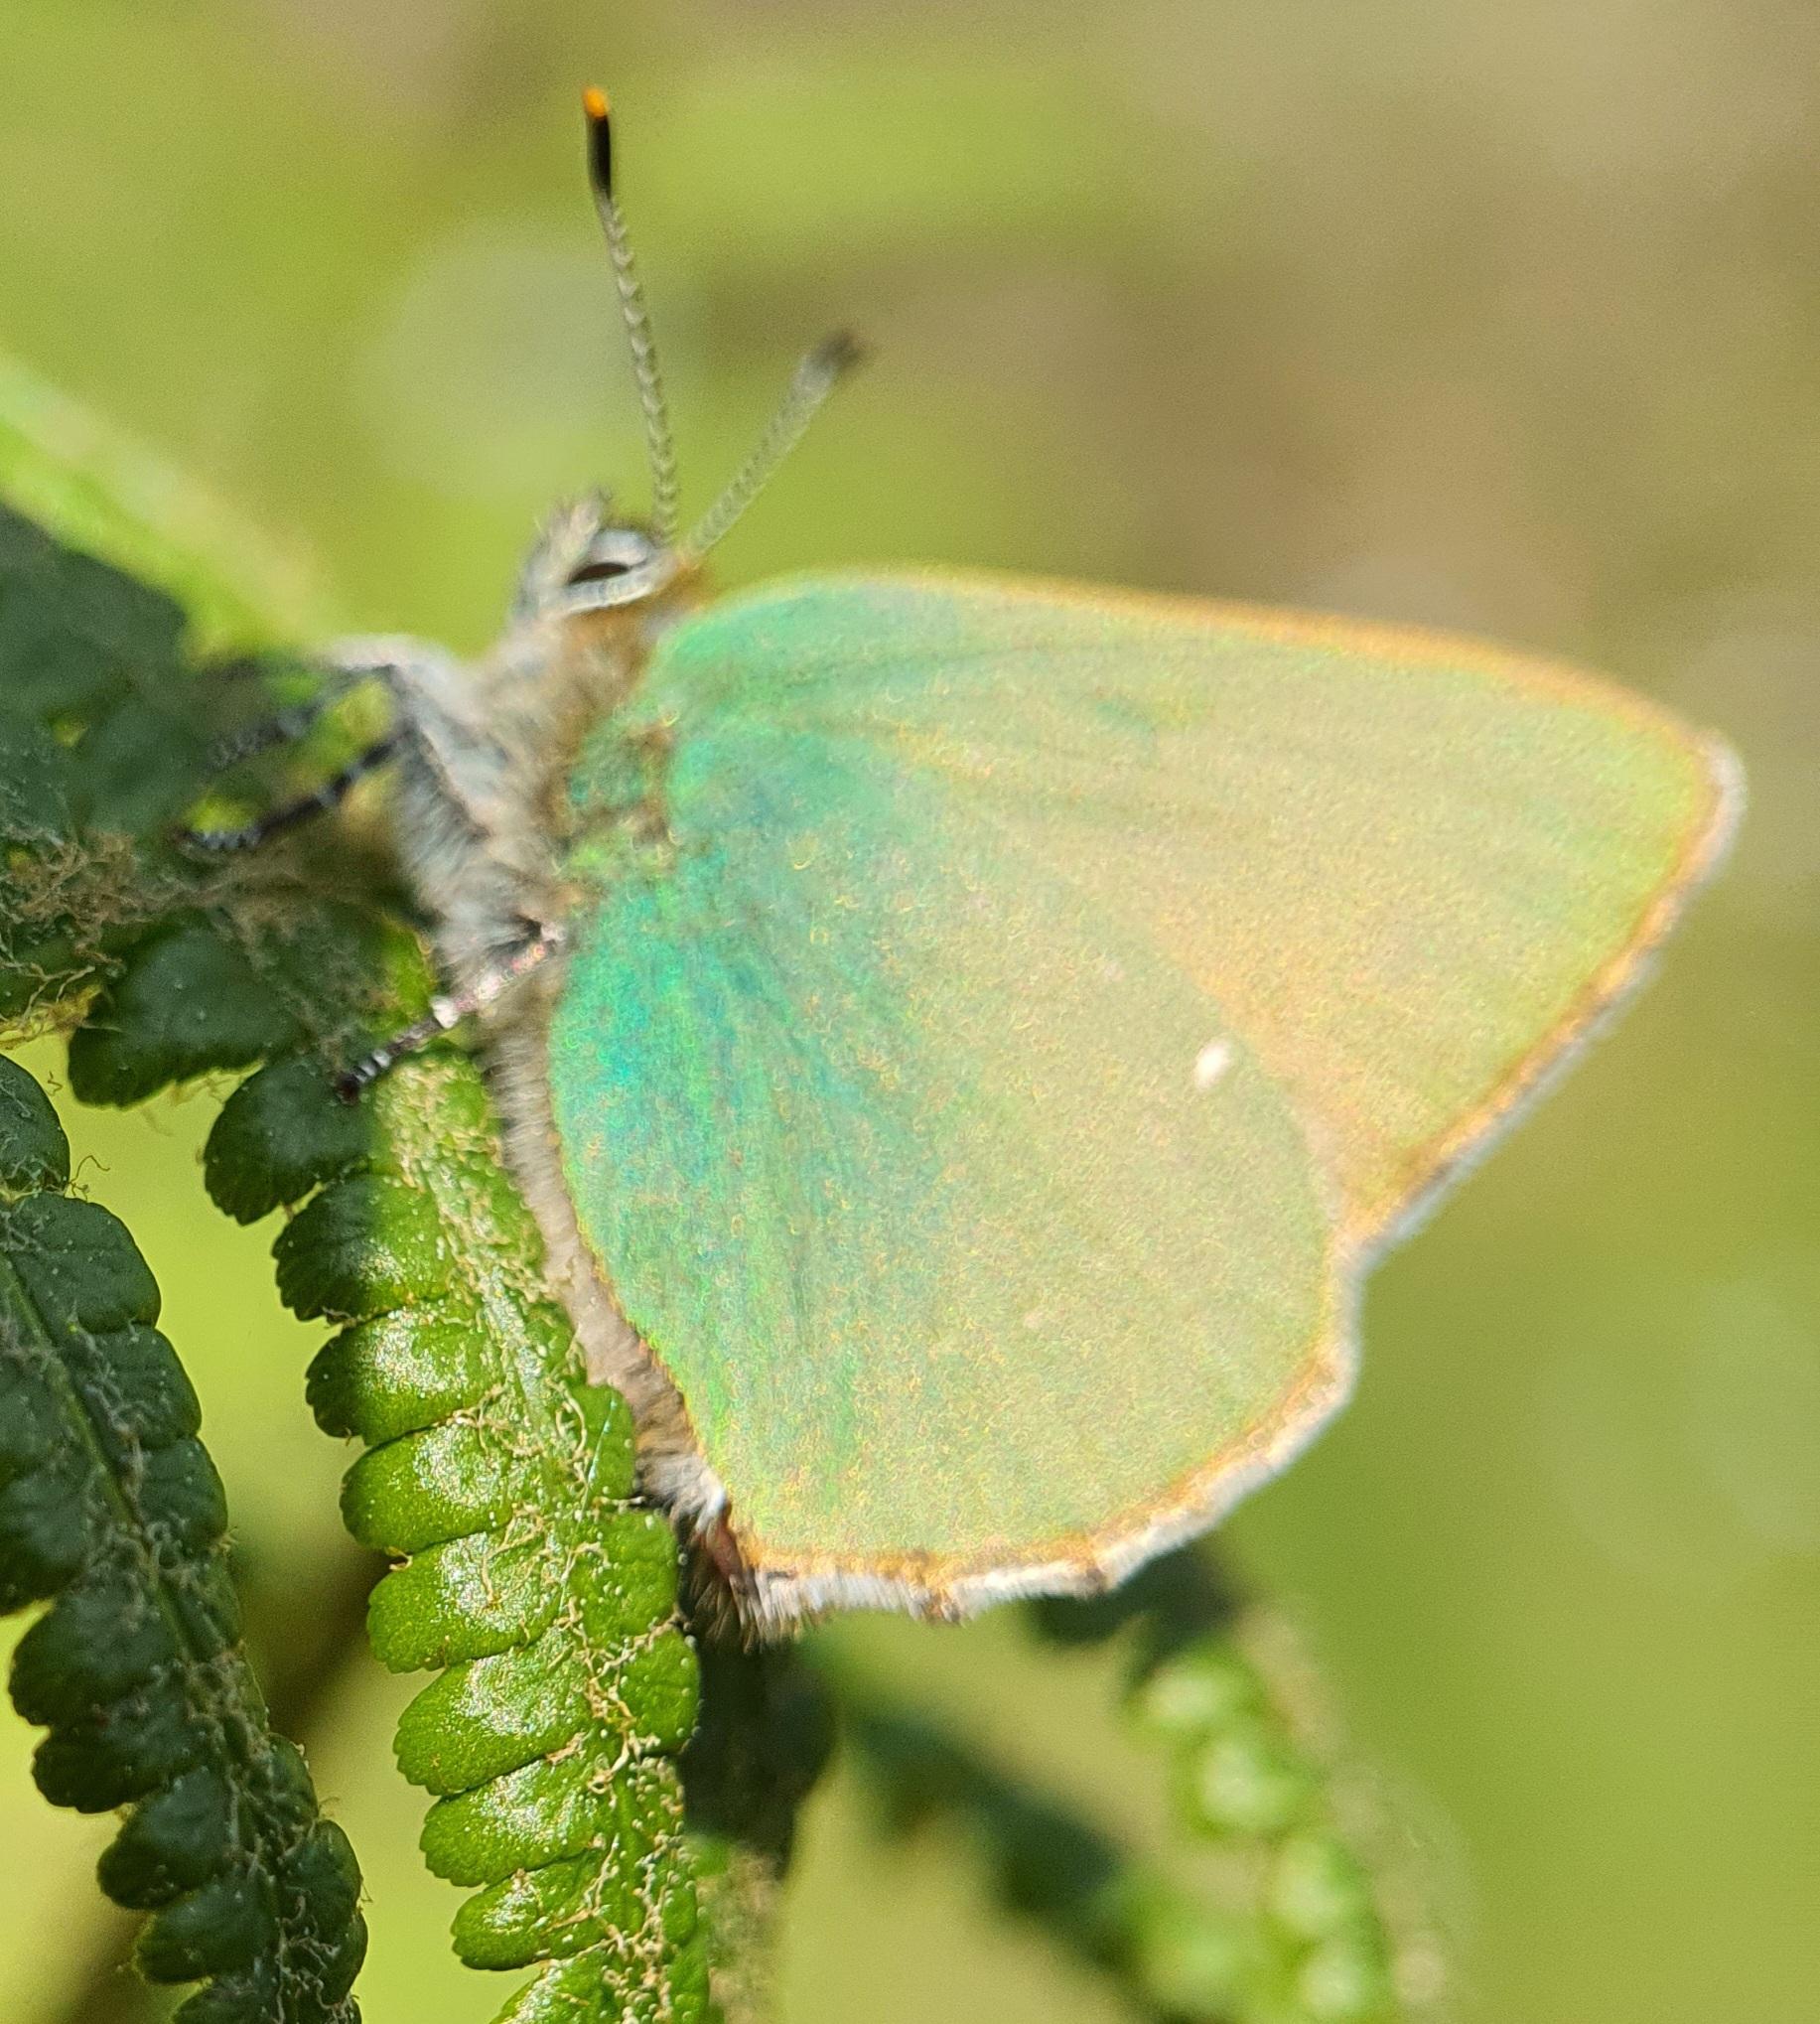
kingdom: Animalia
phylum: Arthropoda
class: Insecta
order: Lepidoptera
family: Lycaenidae
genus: Callophrys
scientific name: Callophrys rubi
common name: Grøn busksommerfugl
